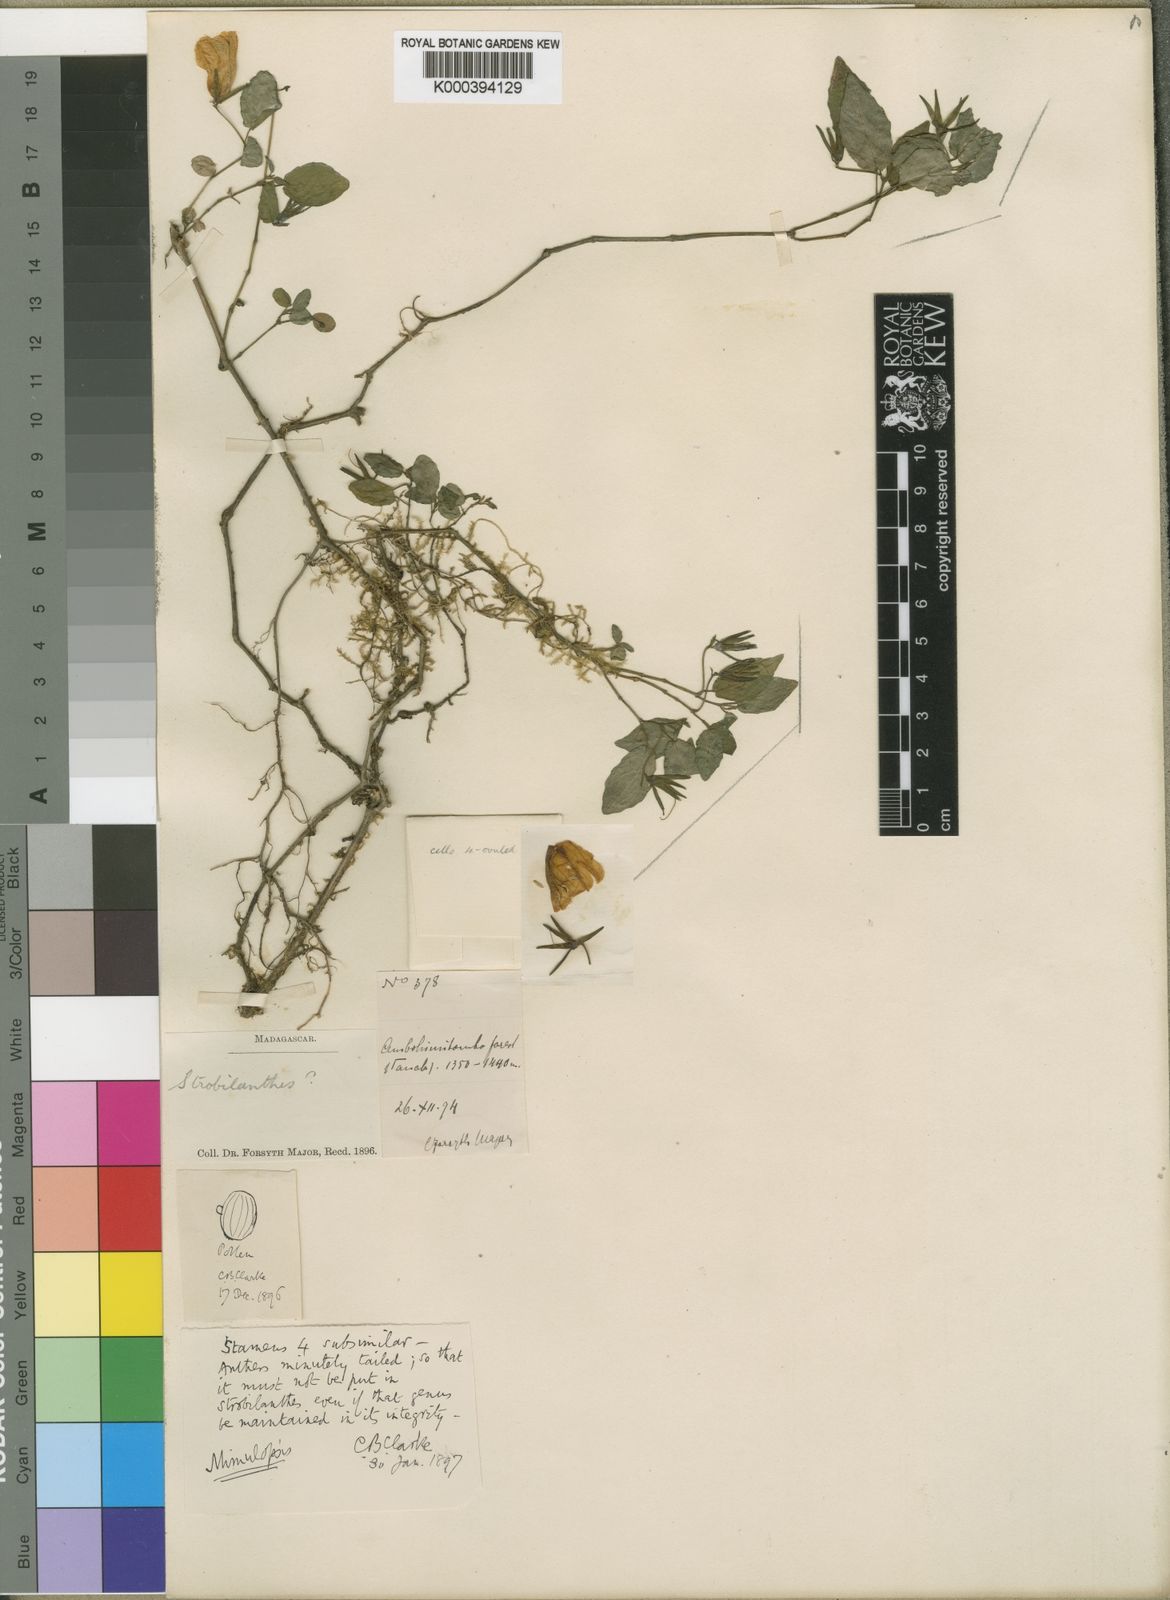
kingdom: Plantae
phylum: Tracheophyta
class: Magnoliopsida
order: Lamiales
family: Acanthaceae
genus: Mimulopsis
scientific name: Mimulopsis madagascariensis
